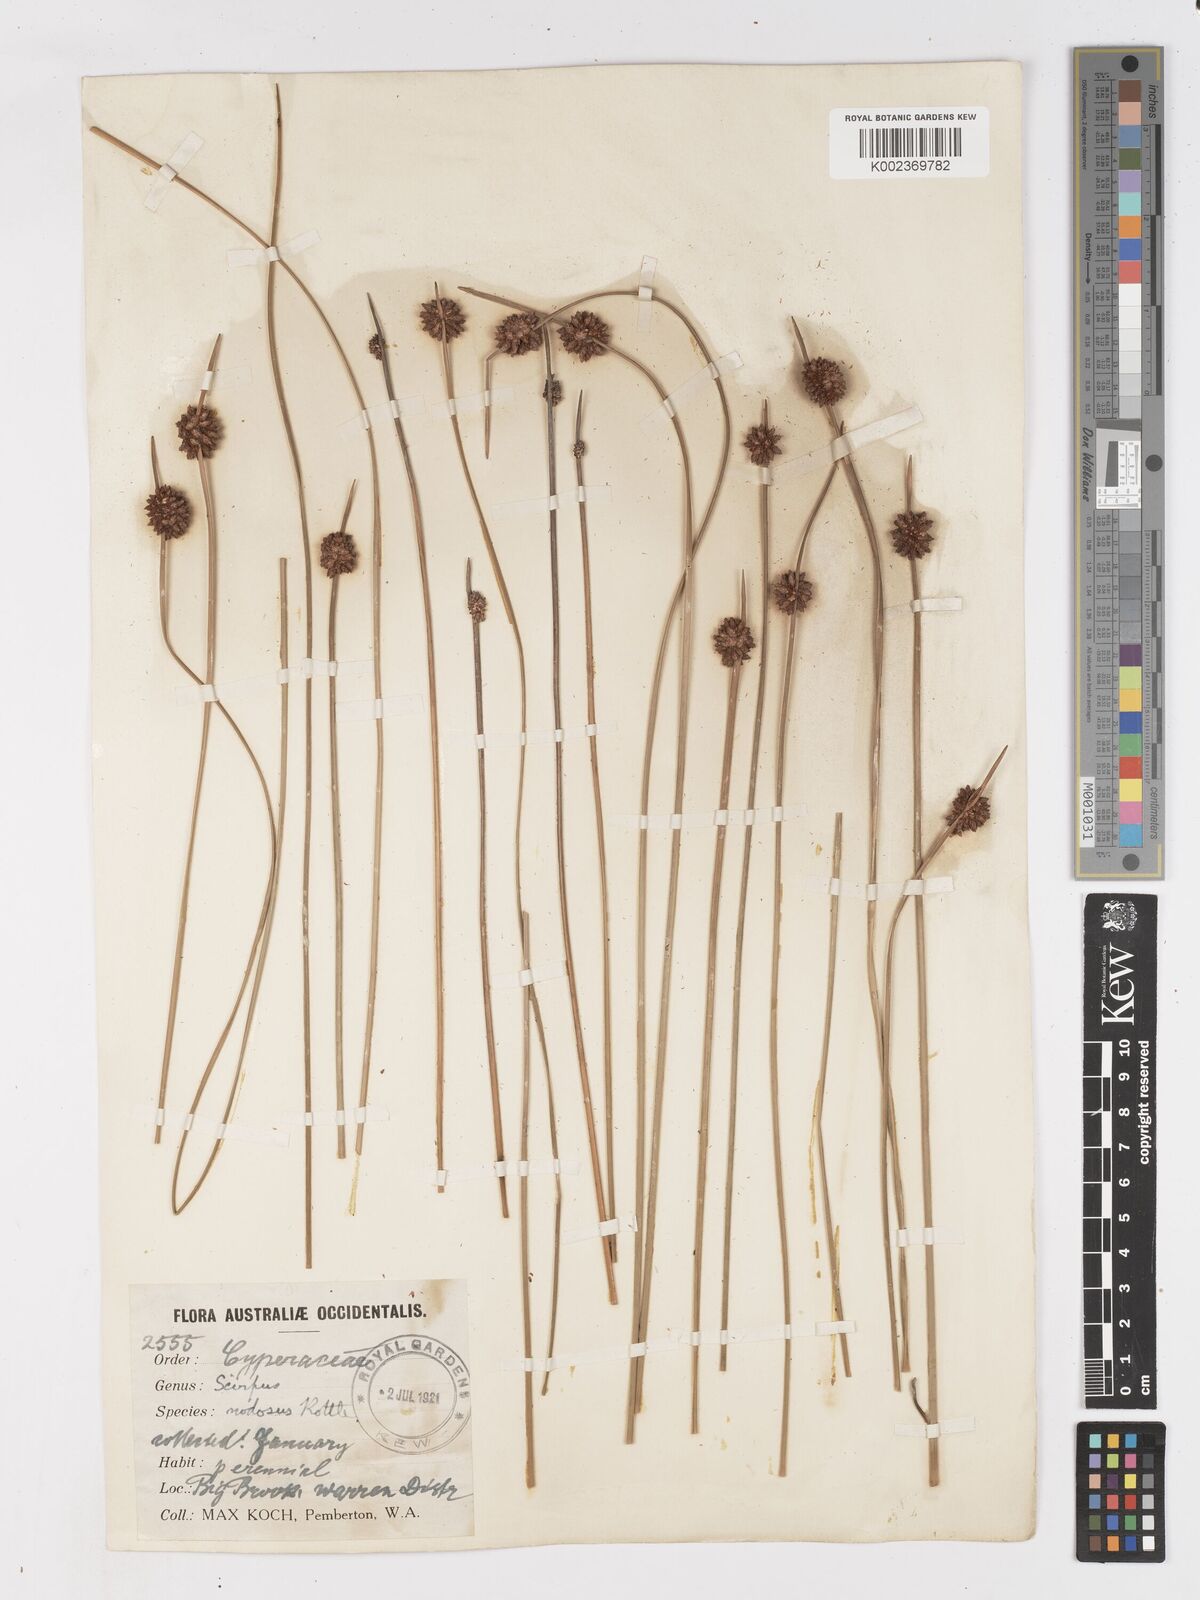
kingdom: Plantae
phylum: Tracheophyta
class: Liliopsida
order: Poales
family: Cyperaceae
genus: Ficinia
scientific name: Ficinia nodosa
